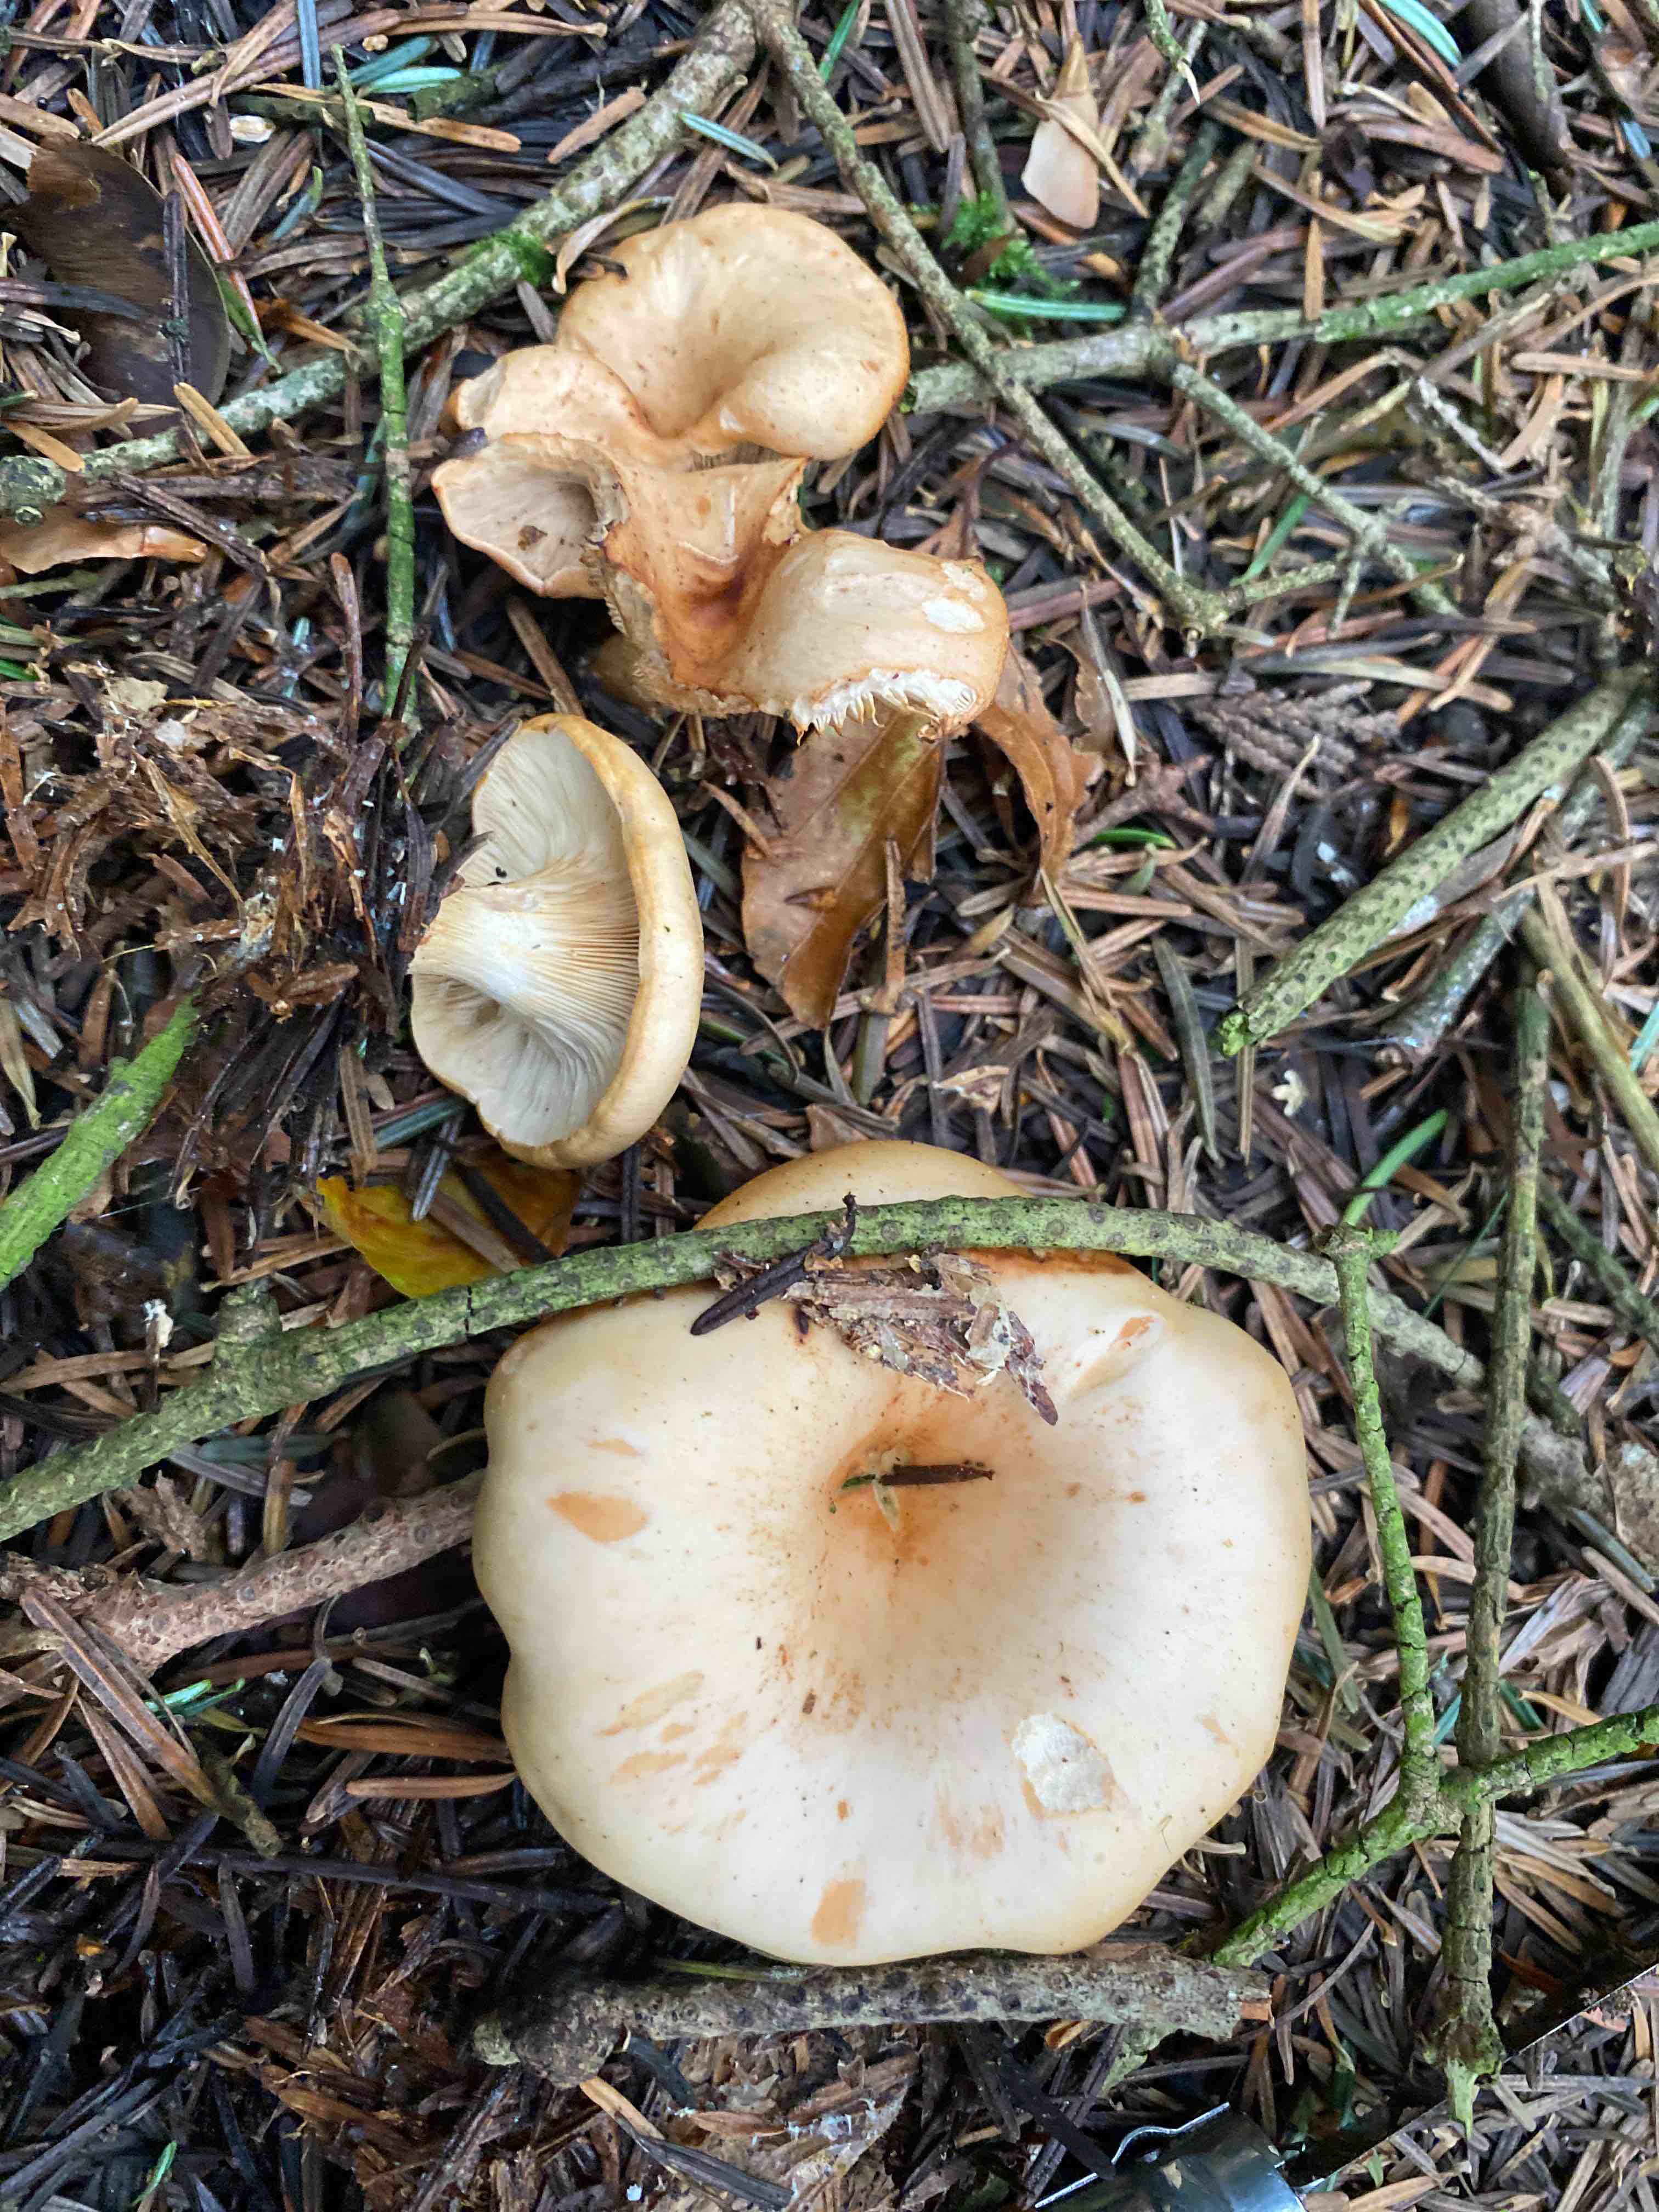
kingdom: Fungi
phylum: Basidiomycota
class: Agaricomycetes
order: Agaricales
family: Tricholomataceae
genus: Paralepista
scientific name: Paralepista
